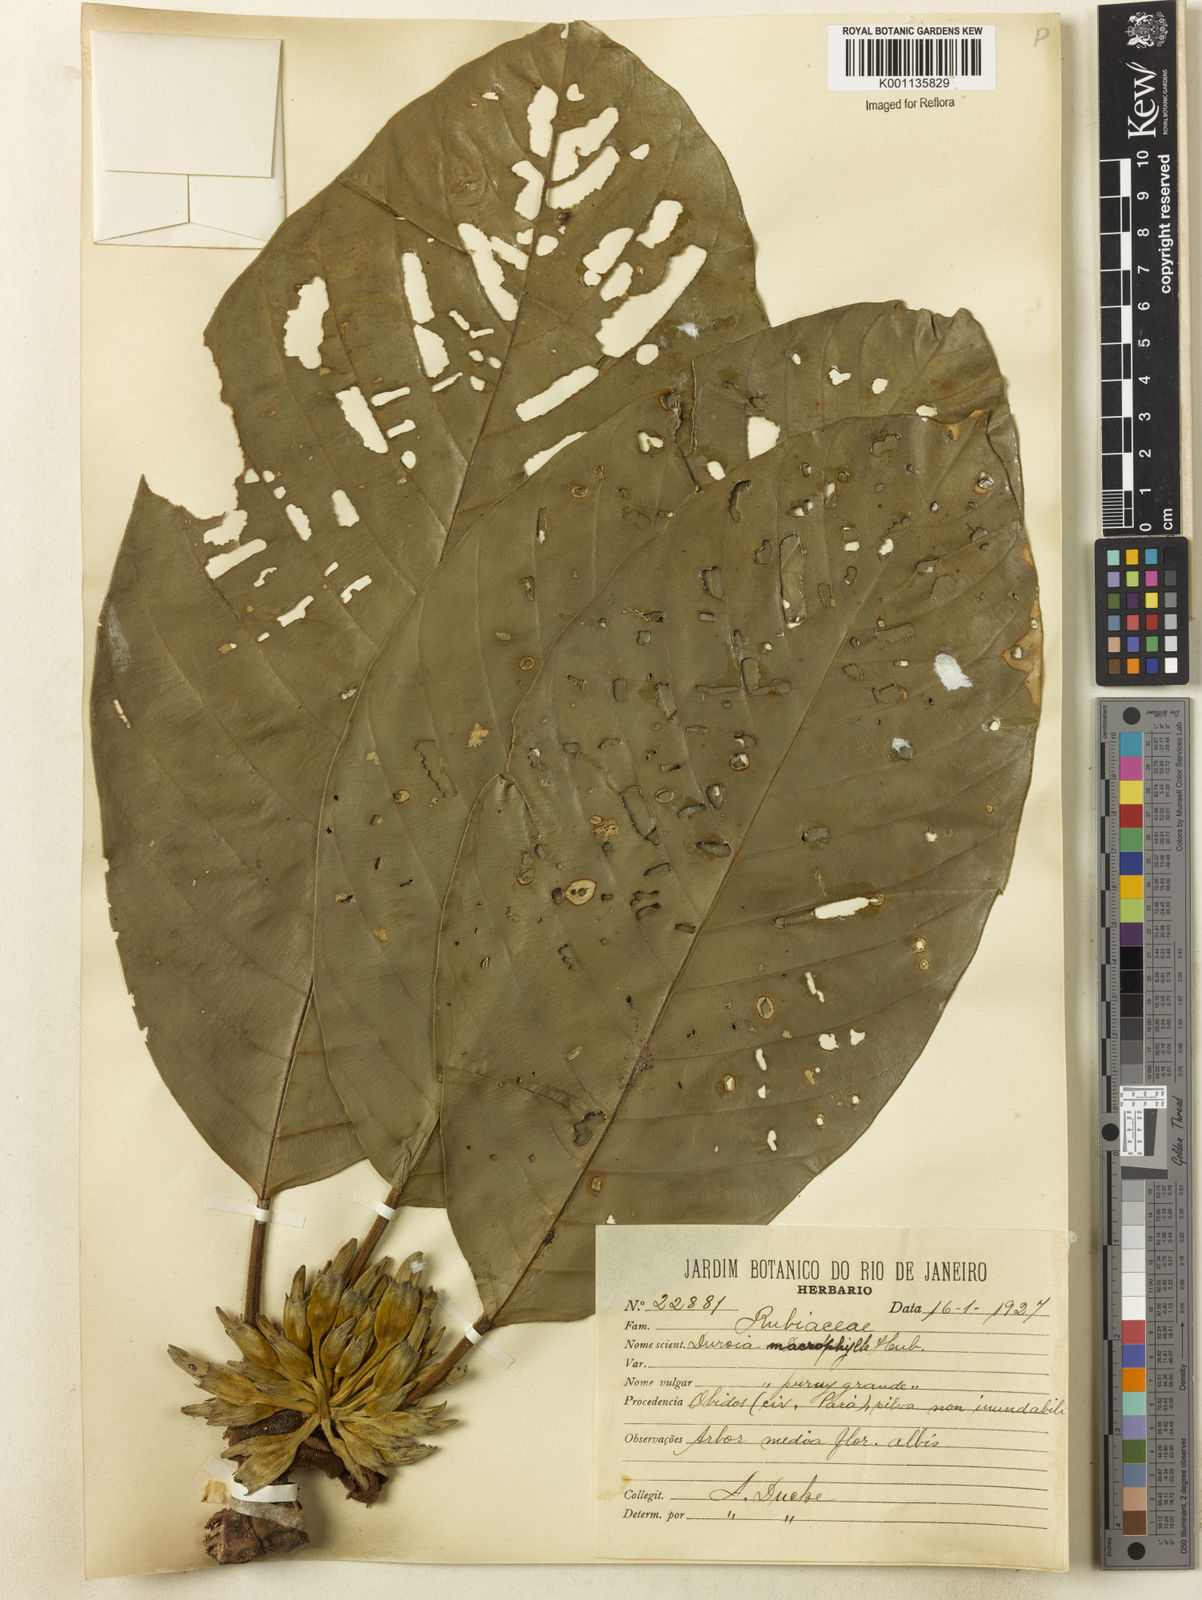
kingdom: Plantae
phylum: Tracheophyta
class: Magnoliopsida
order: Gentianales
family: Rubiaceae
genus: Duroia
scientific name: Duroia macrophylla
